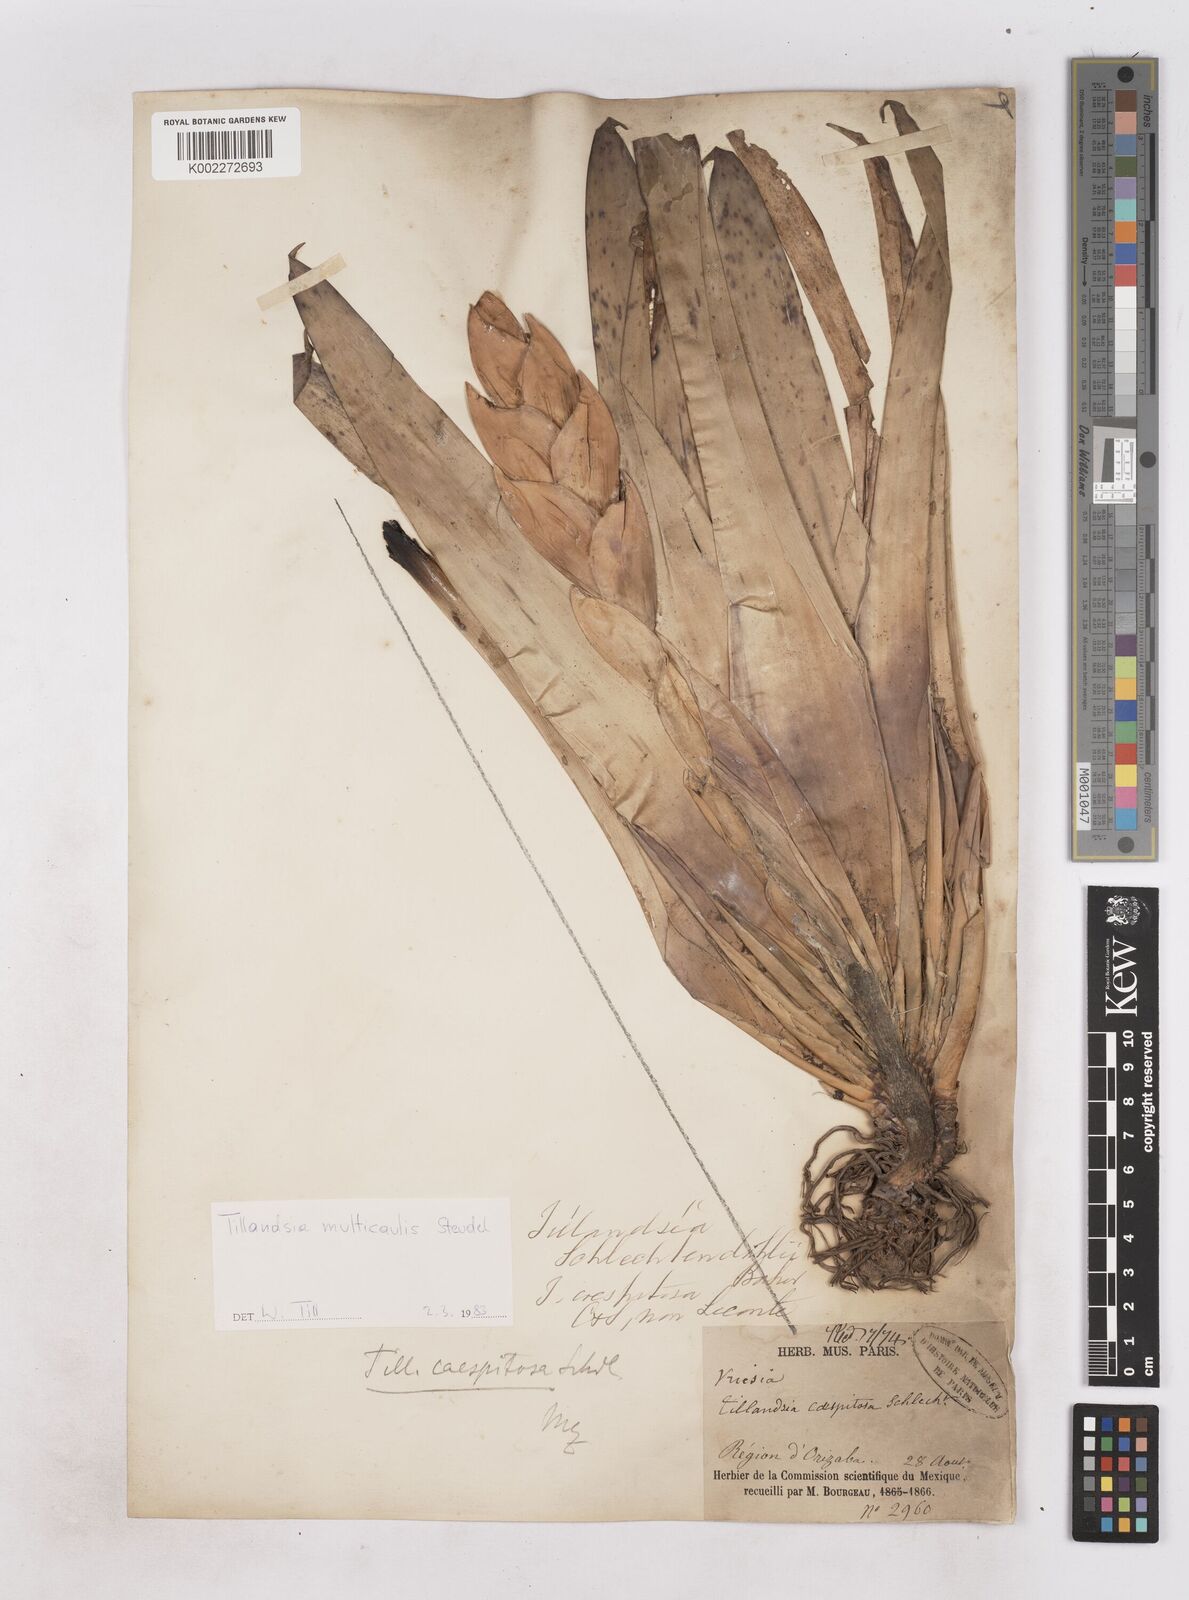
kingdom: Plantae
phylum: Tracheophyta
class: Liliopsida
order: Poales
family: Bromeliaceae
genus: Tillandsia
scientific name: Tillandsia multicaulis
